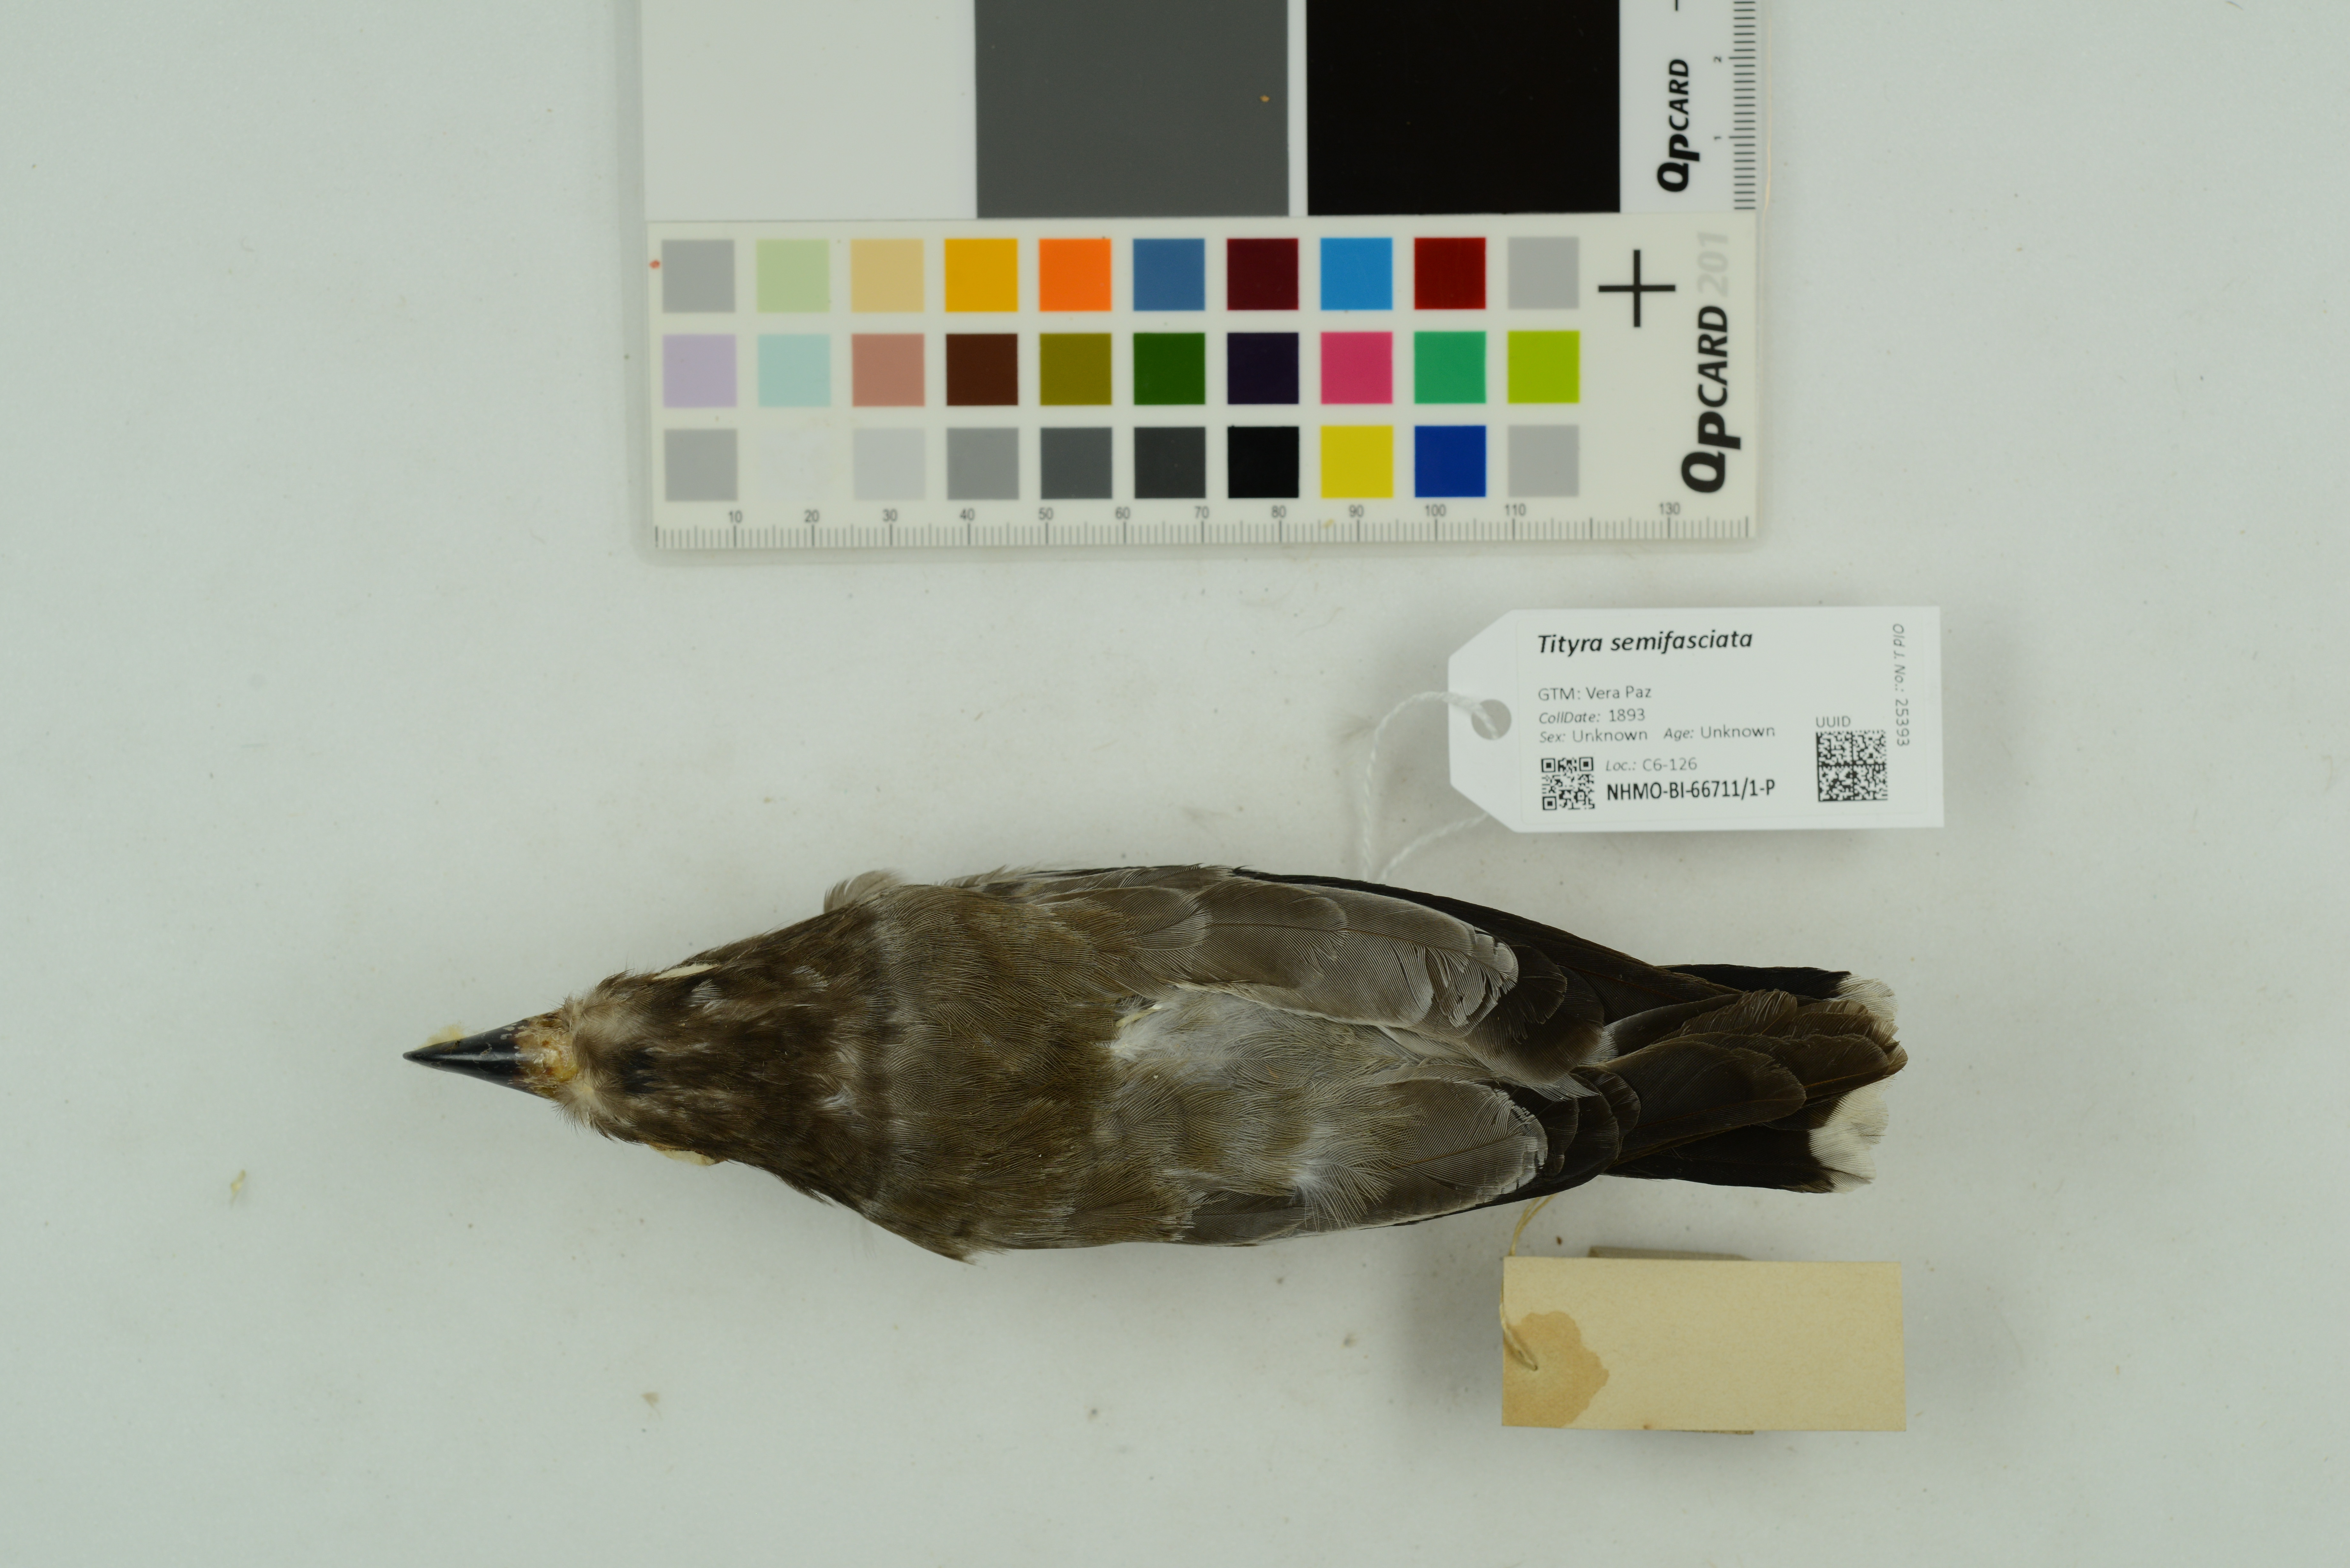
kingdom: Animalia
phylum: Chordata
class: Aves
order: Passeriformes
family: Cotingidae
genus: Tityra
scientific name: Tityra semifasciata
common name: Masked tityra
